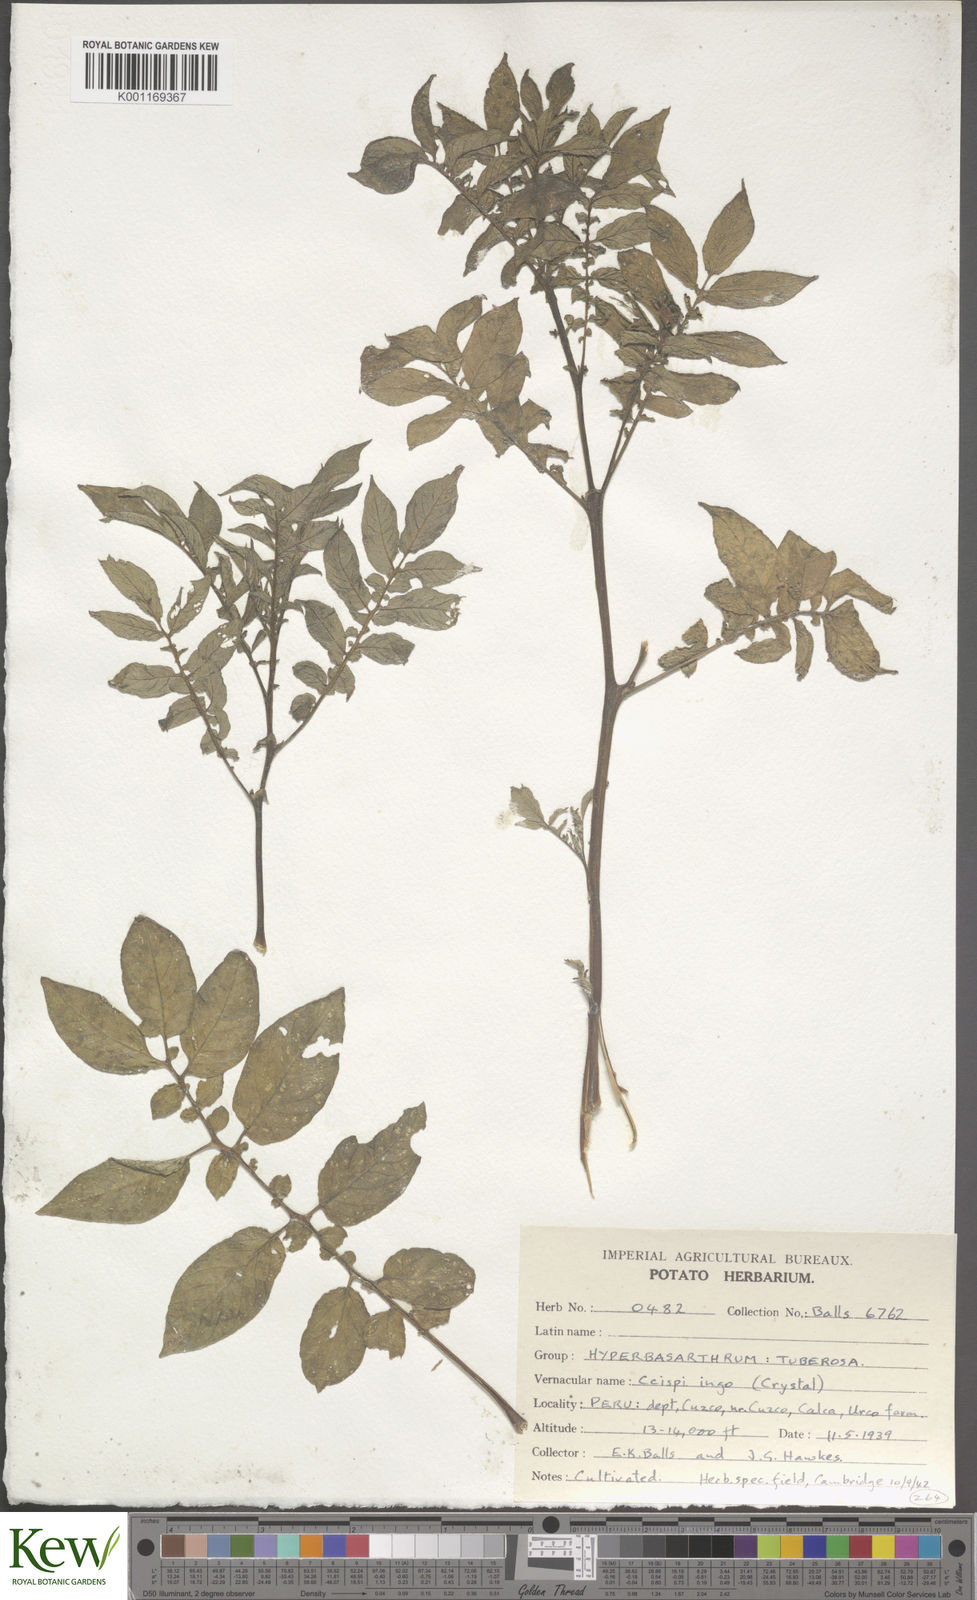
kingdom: Plantae
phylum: Tracheophyta
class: Magnoliopsida
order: Solanales
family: Solanaceae
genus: Solanum
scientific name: Solanum chaucha
